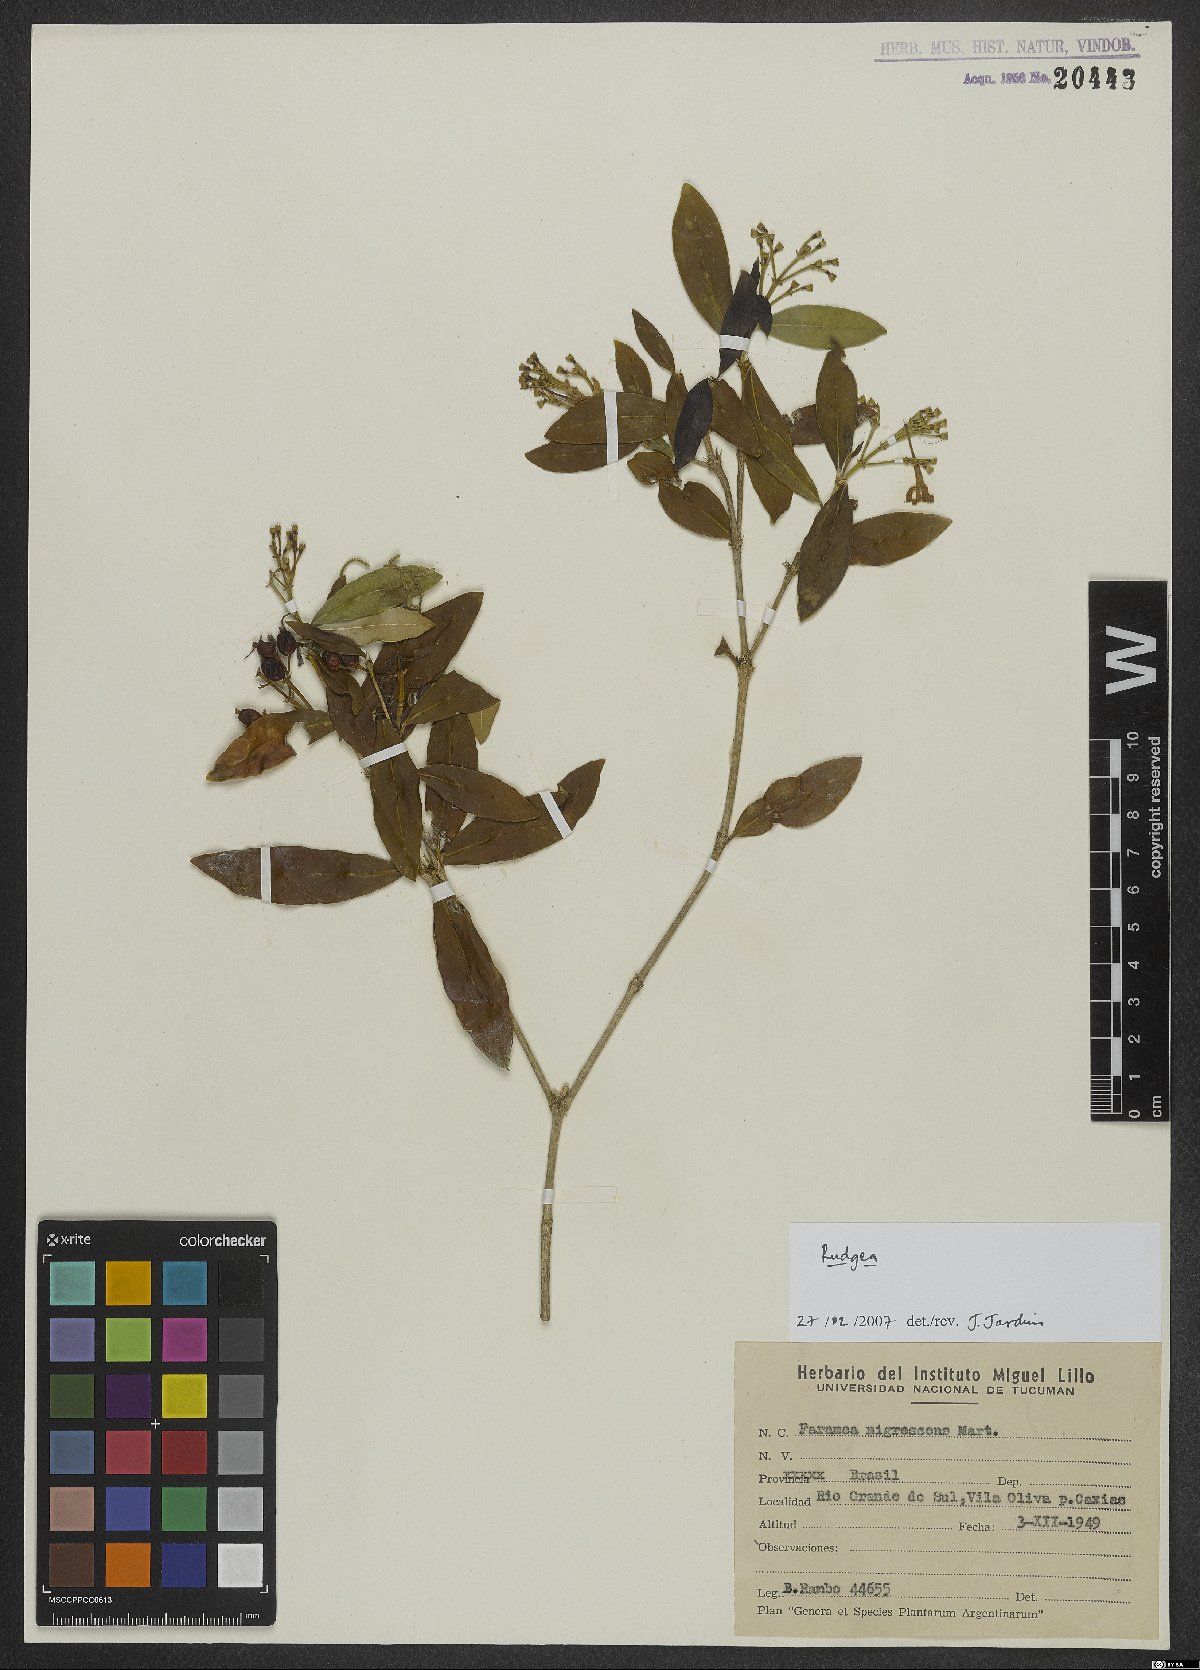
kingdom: Plantae
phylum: Tracheophyta
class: Magnoliopsida
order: Gentianales
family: Rubiaceae
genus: Rudgea
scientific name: Rudgea
